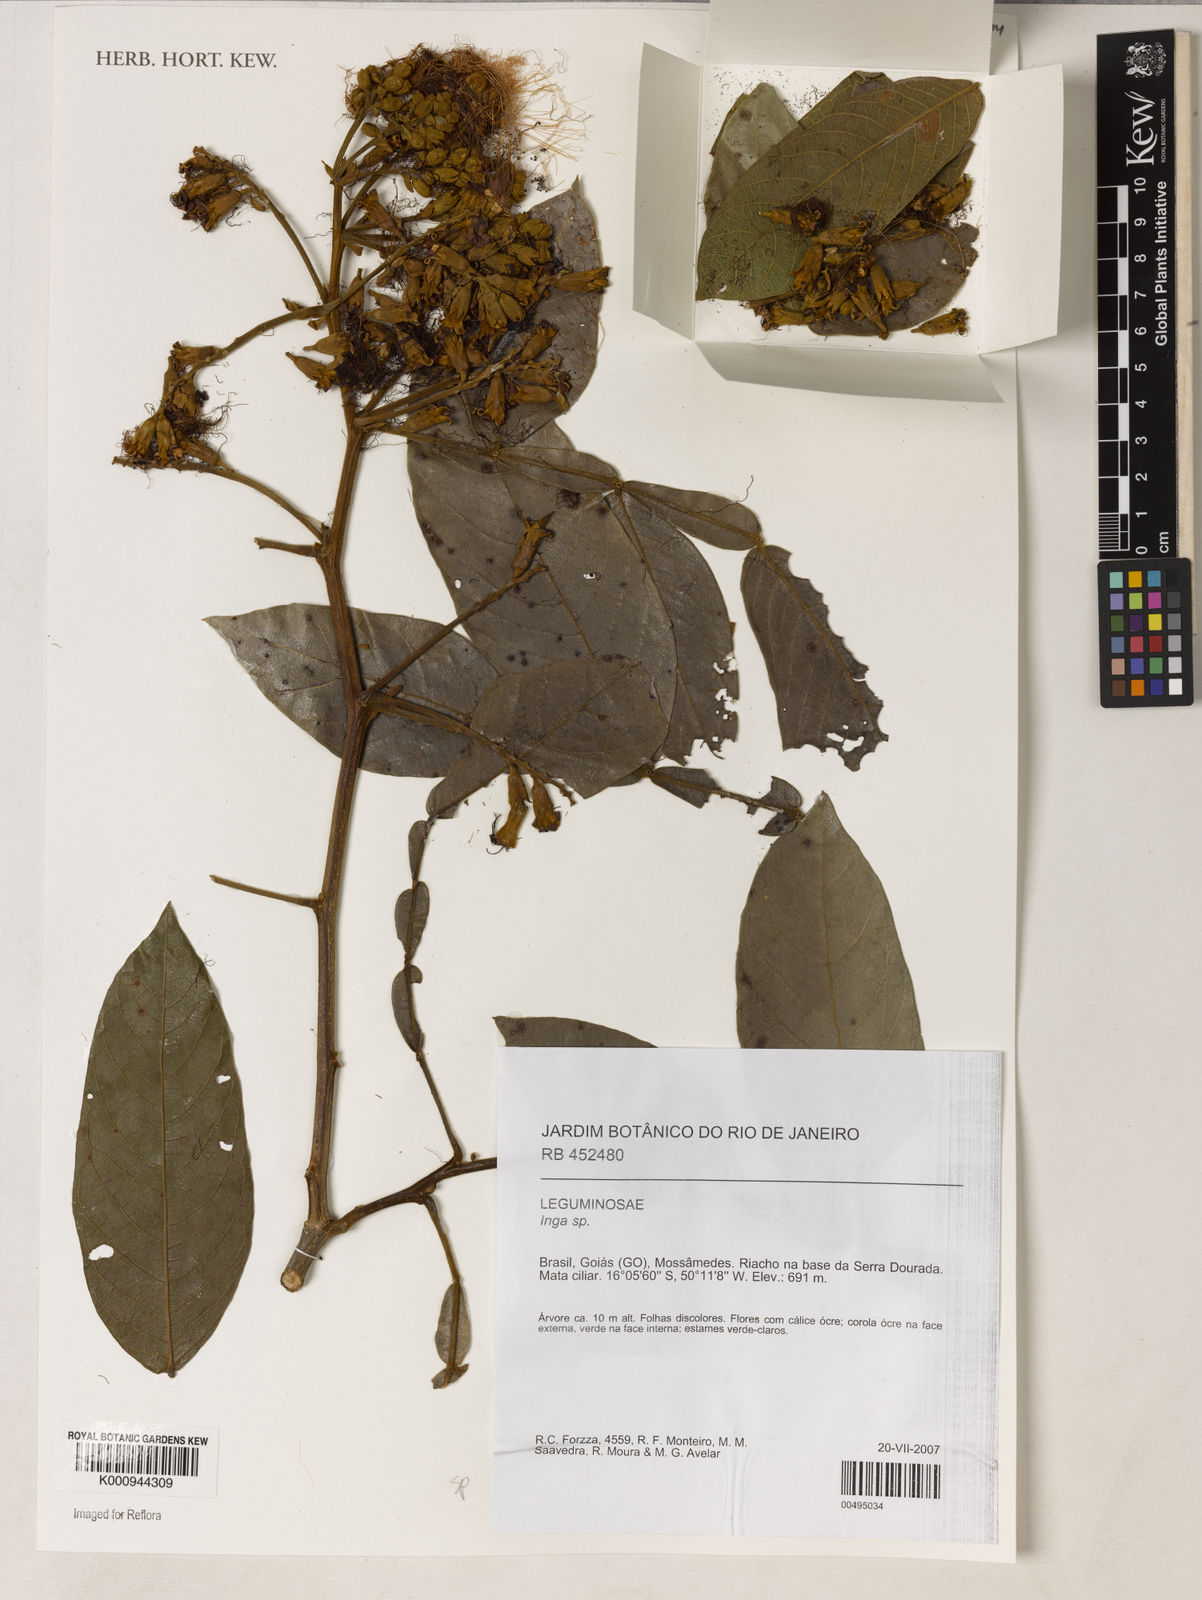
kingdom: Plantae
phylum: Tracheophyta
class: Magnoliopsida
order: Fabales
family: Fabaceae
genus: Inga
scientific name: Inga
